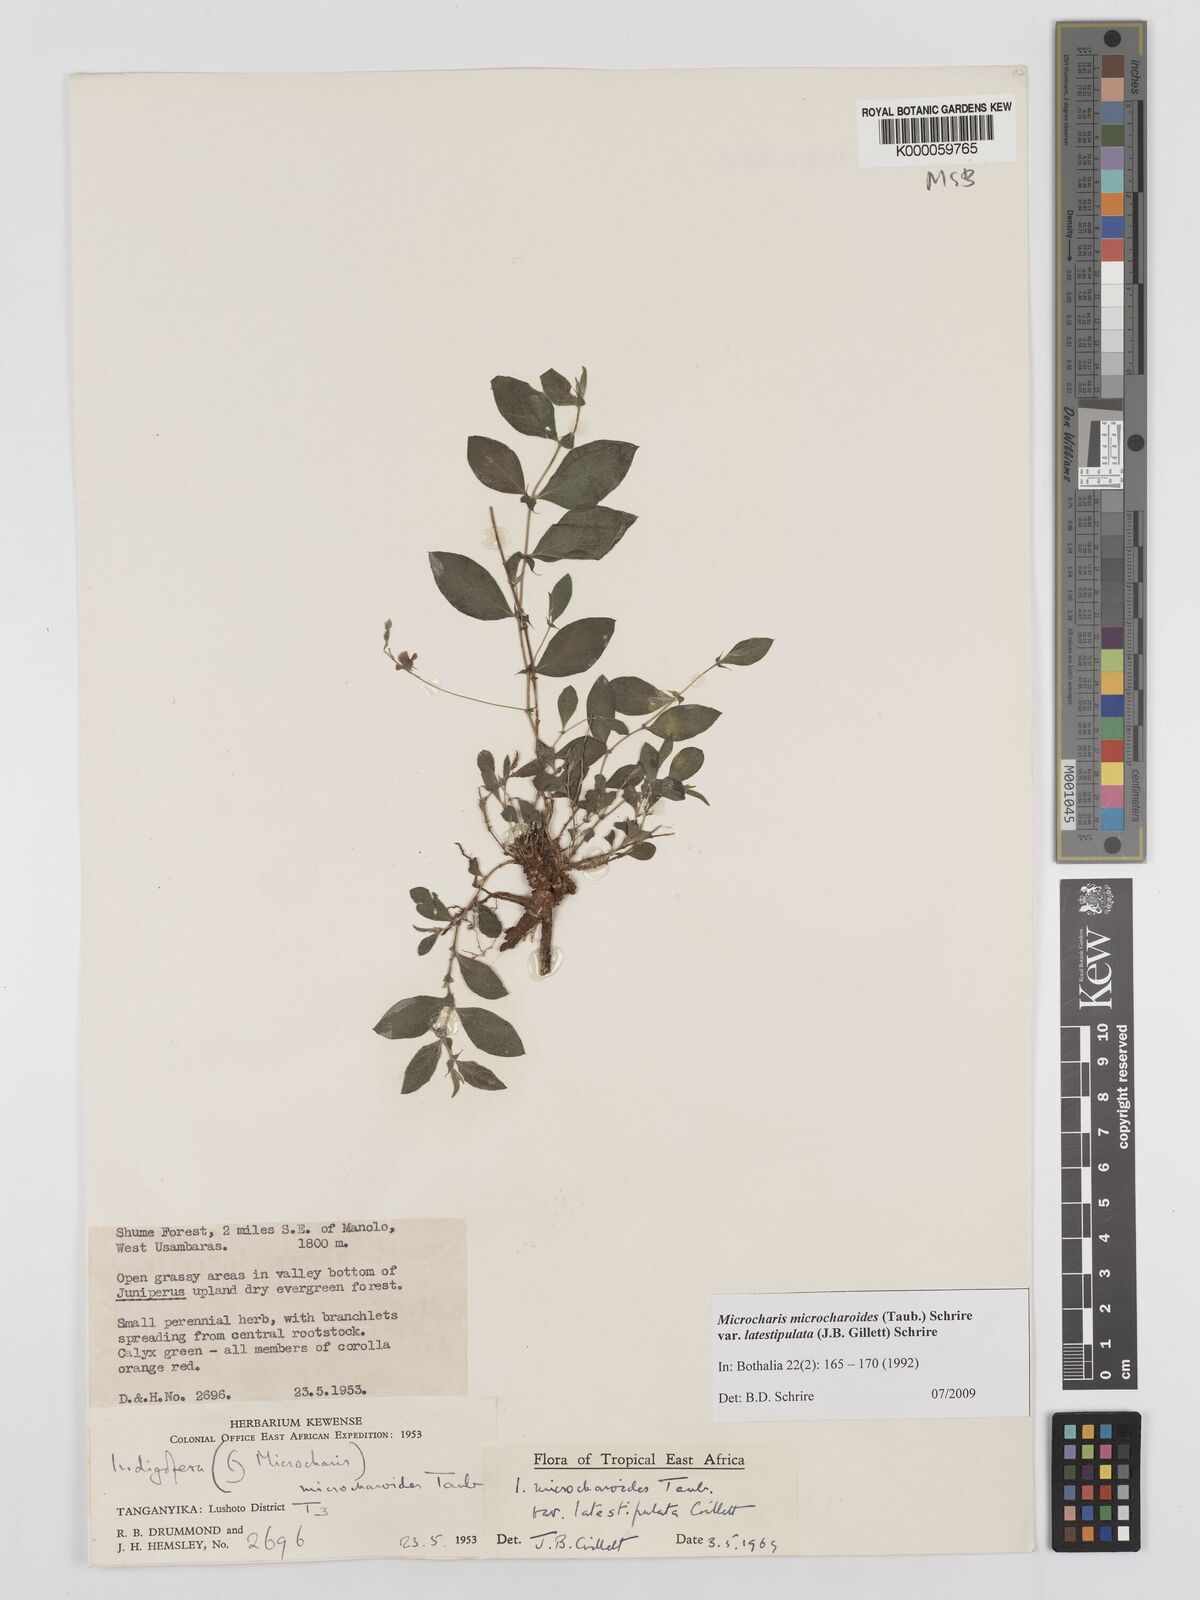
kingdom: Plantae
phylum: Tracheophyta
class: Magnoliopsida
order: Fabales
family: Fabaceae
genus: Indigofera
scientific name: Indigofera
